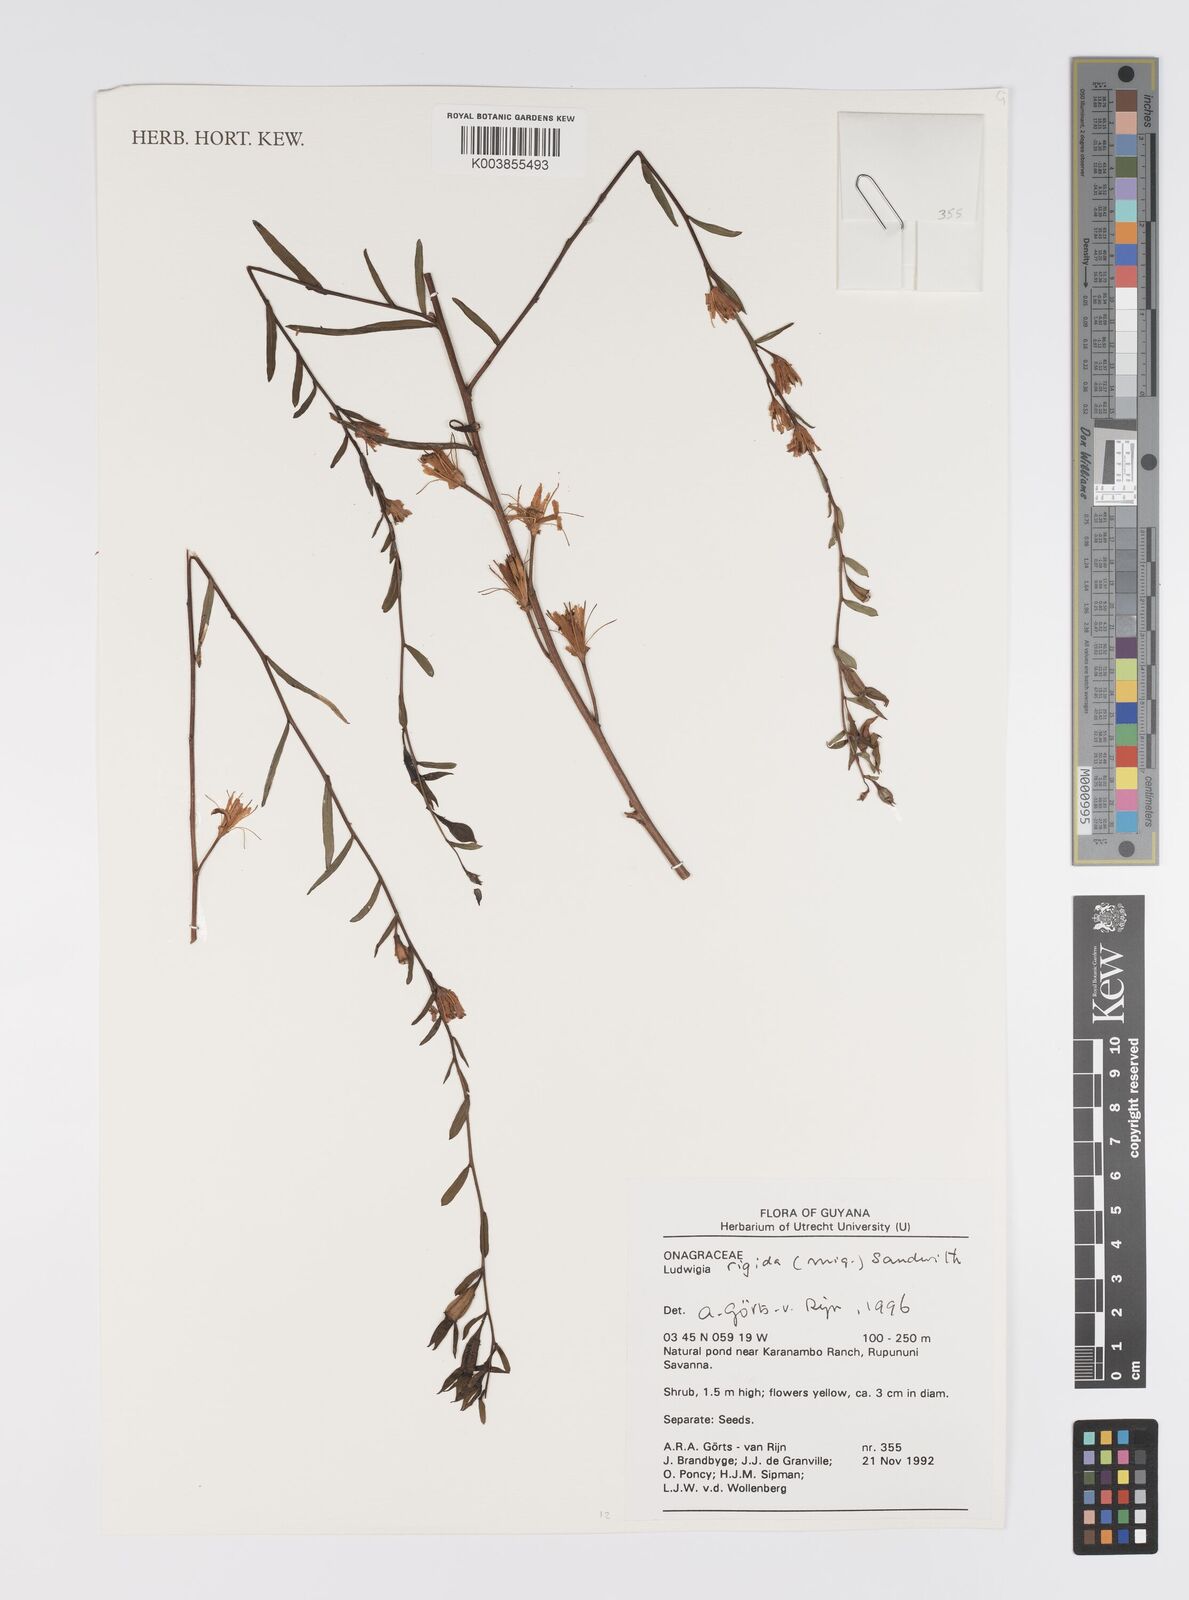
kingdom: Plantae
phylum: Tracheophyta
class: Magnoliopsida
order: Myrtales
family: Onagraceae
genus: Ludwigia
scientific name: Ludwigia rigida
